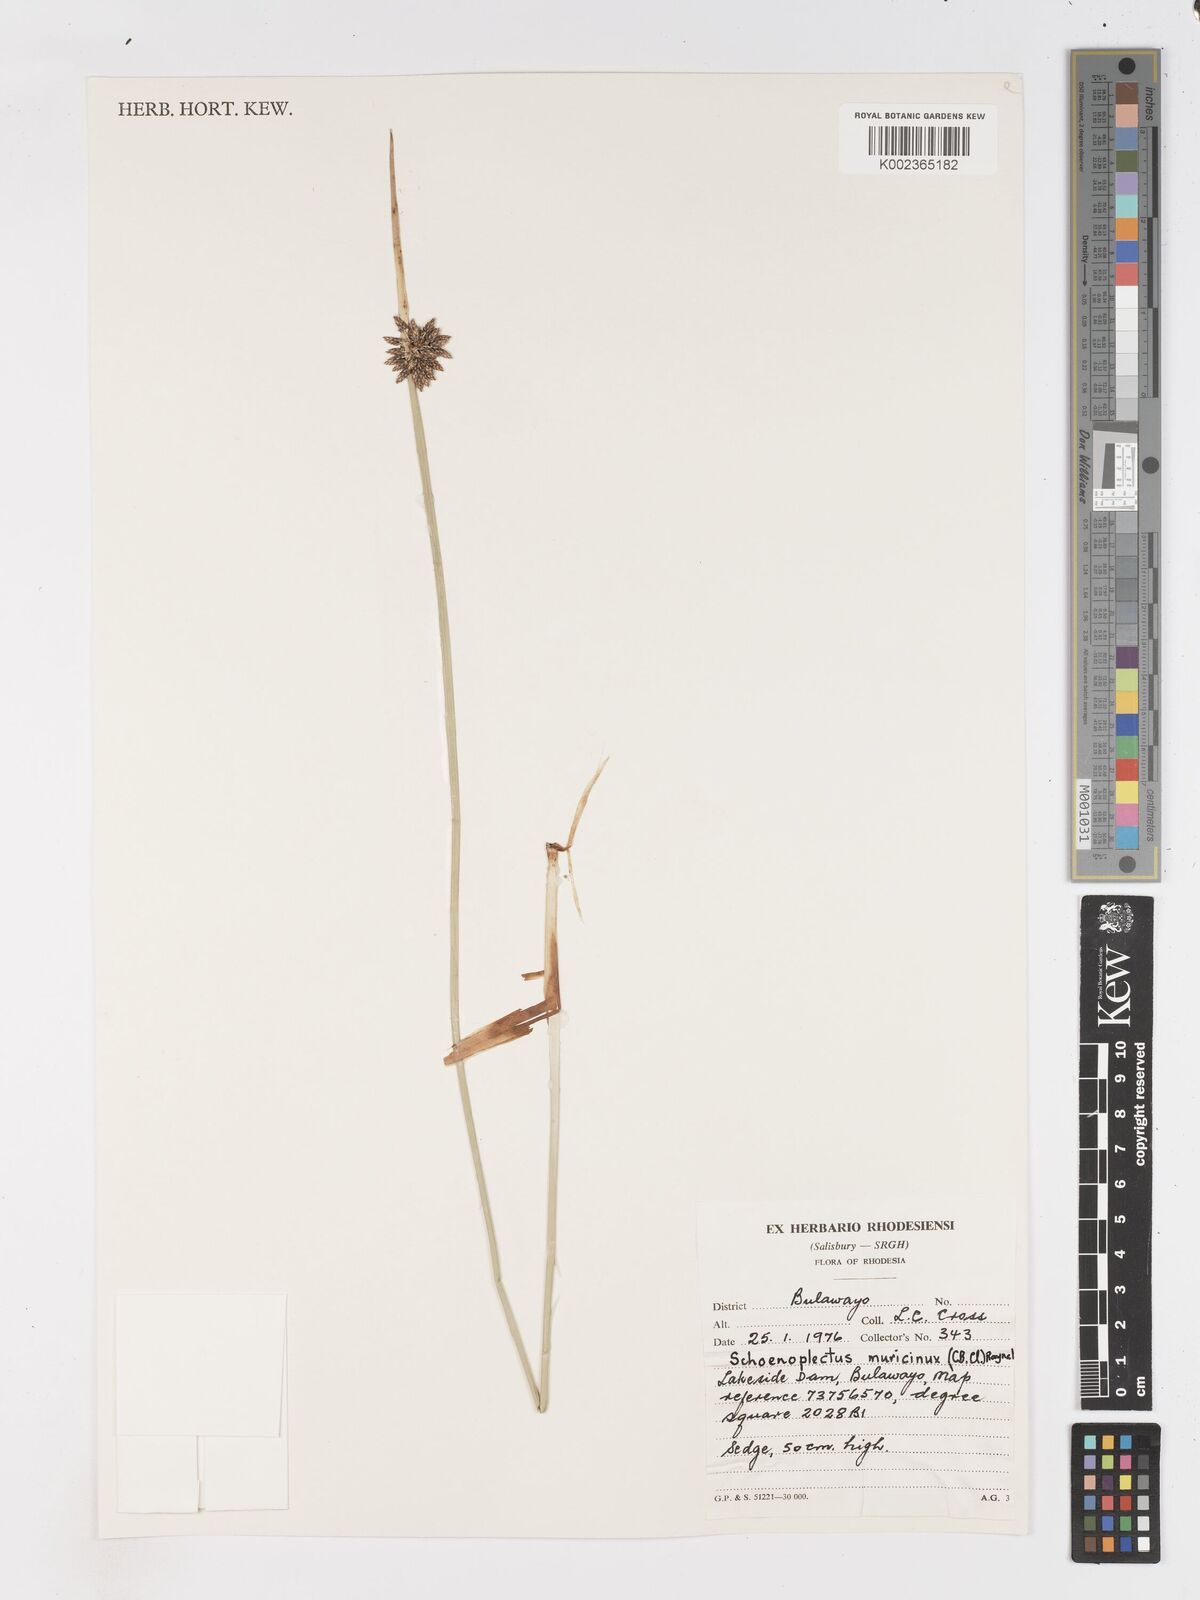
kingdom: Plantae
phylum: Tracheophyta
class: Liliopsida
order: Poales
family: Cyperaceae
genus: Schoenoplectiella
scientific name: Schoenoplectiella muricinux
